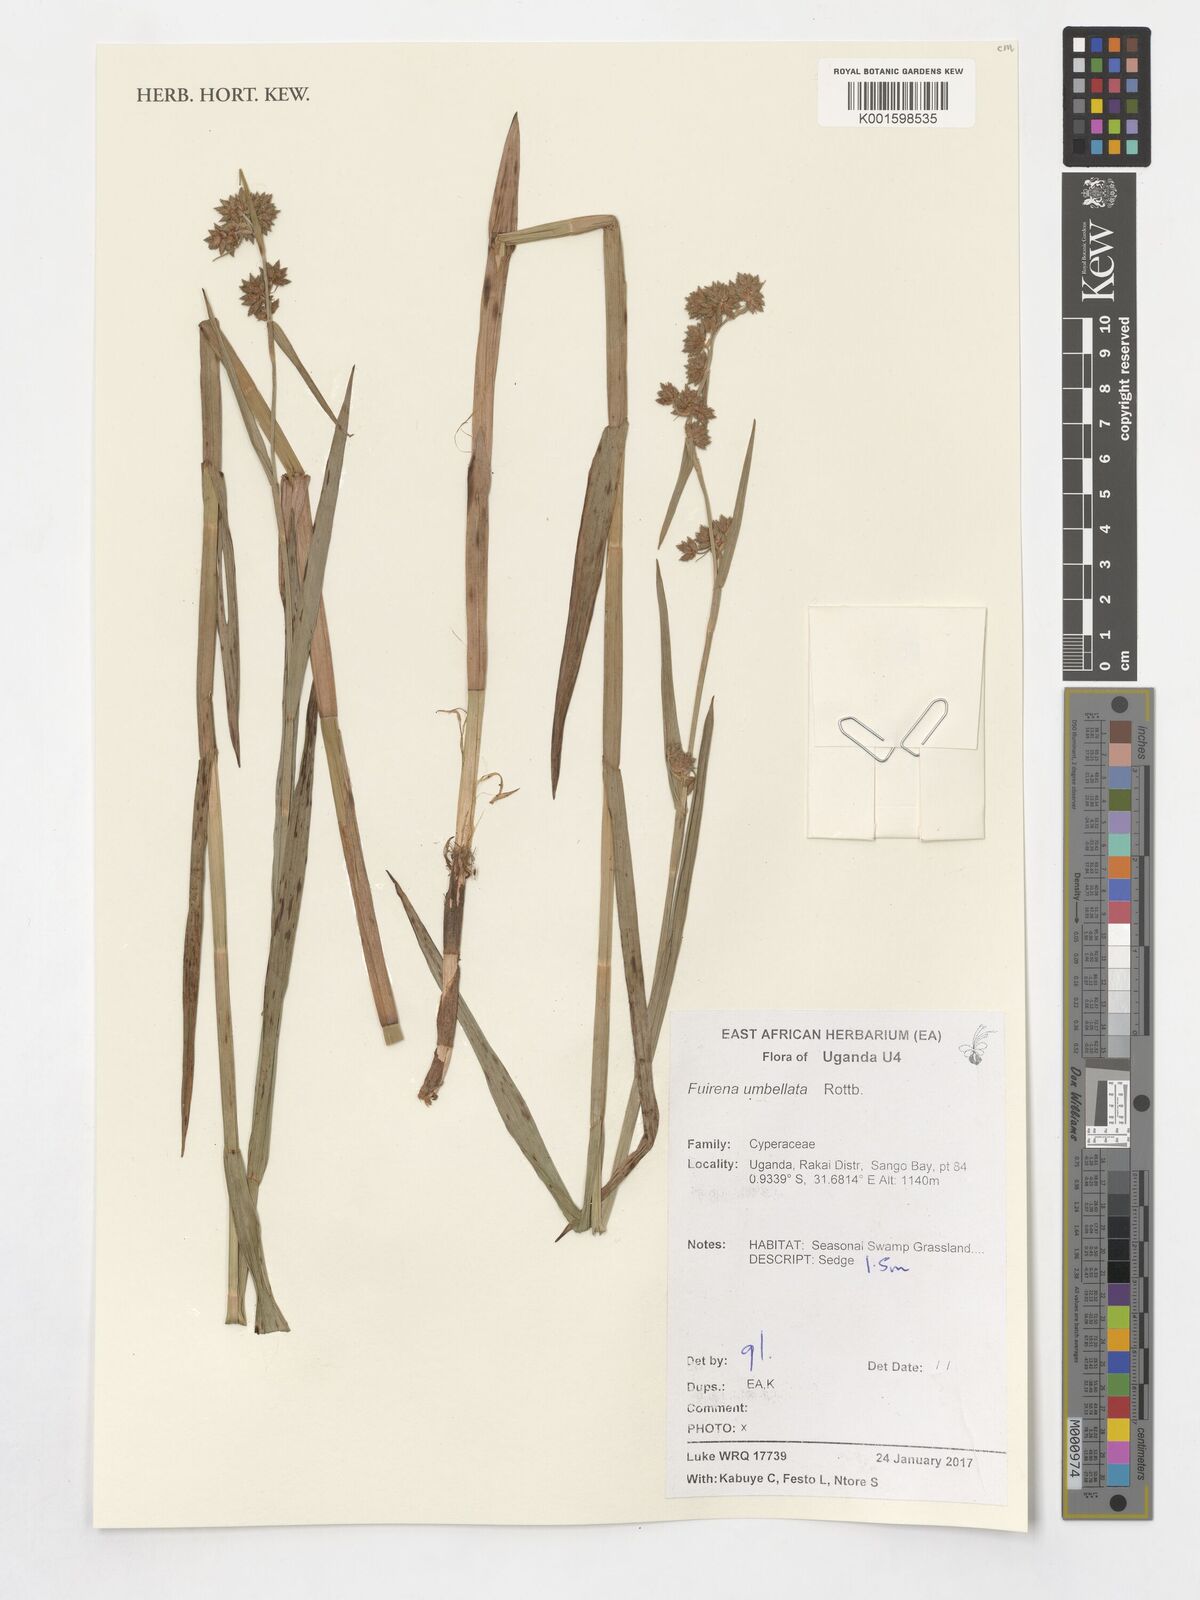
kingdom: Plantae
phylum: Tracheophyta
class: Liliopsida
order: Poales
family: Cyperaceae
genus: Fuirena
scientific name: Fuirena umbellata
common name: Yefen
